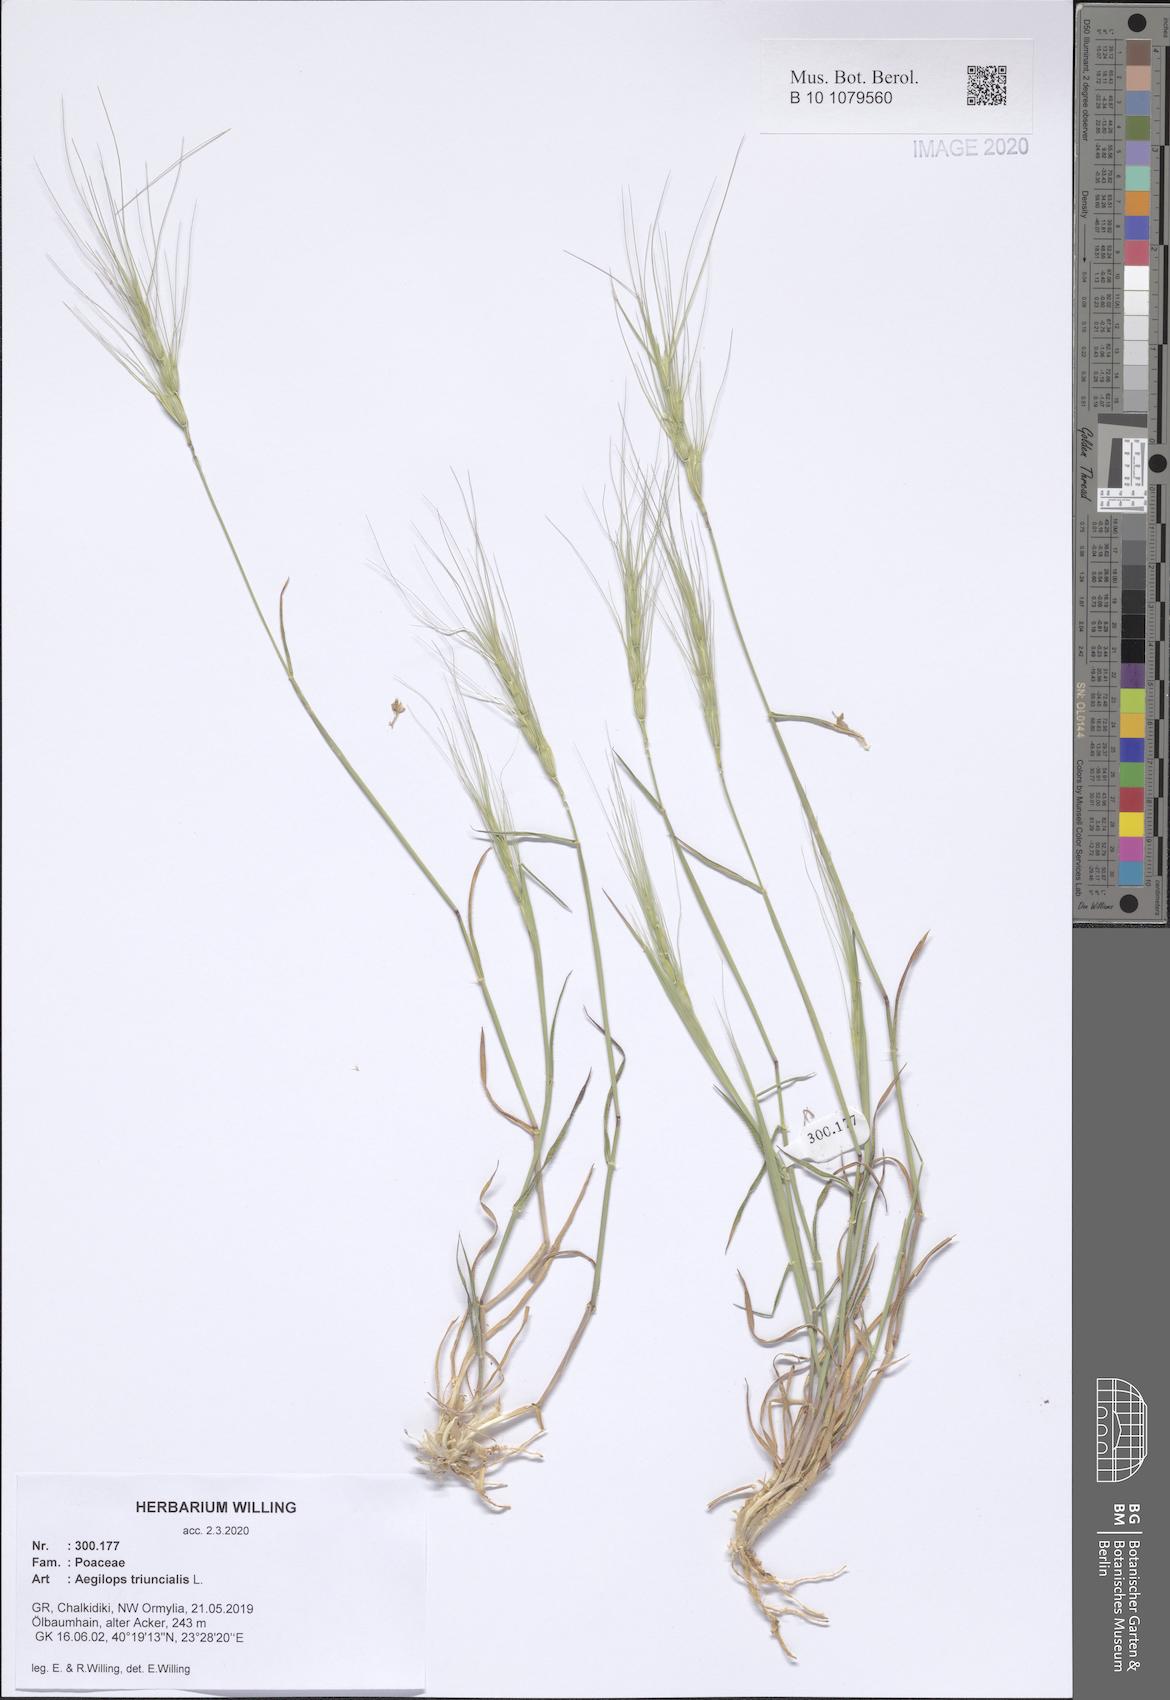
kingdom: Plantae
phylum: Tracheophyta
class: Liliopsida
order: Poales
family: Poaceae
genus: Aegilops
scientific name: Aegilops triuncialis
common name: Barb goat grass
